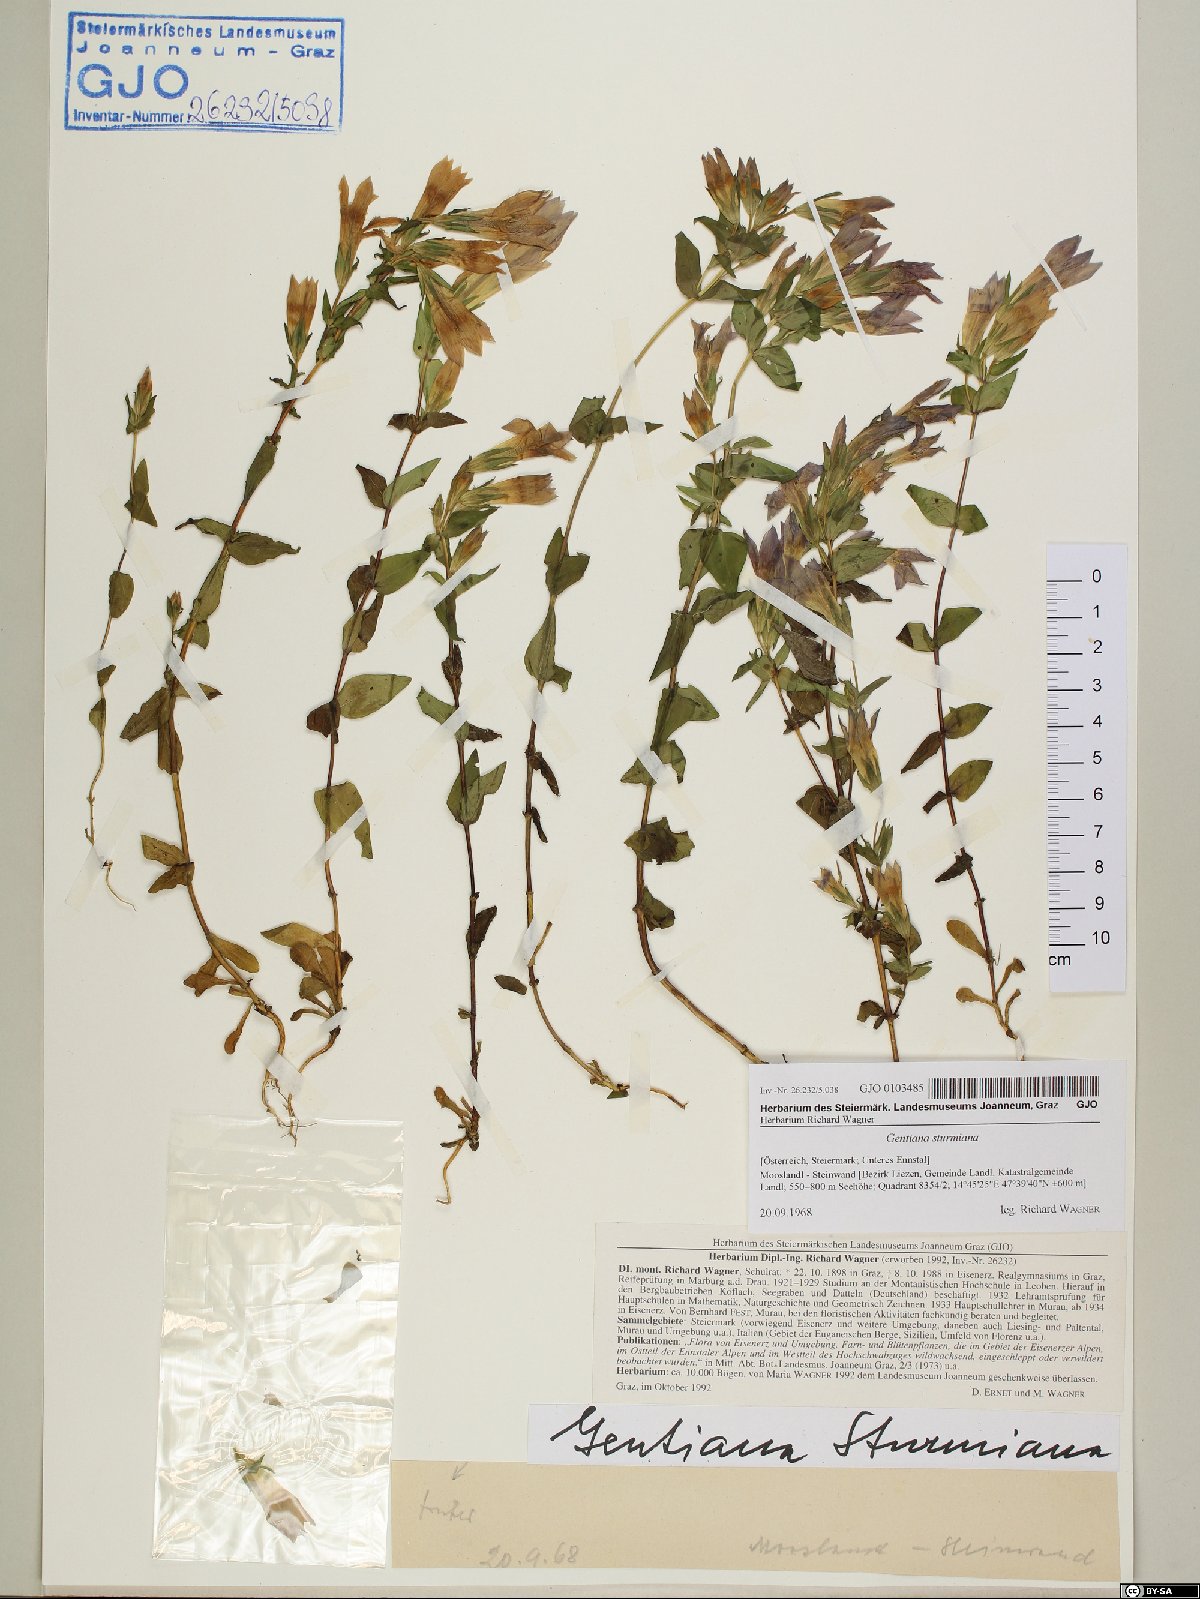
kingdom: Plantae
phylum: Tracheophyta
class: Magnoliopsida
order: Gentianales
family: Gentianaceae
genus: Gentianella
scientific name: Gentianella obtusifolia
